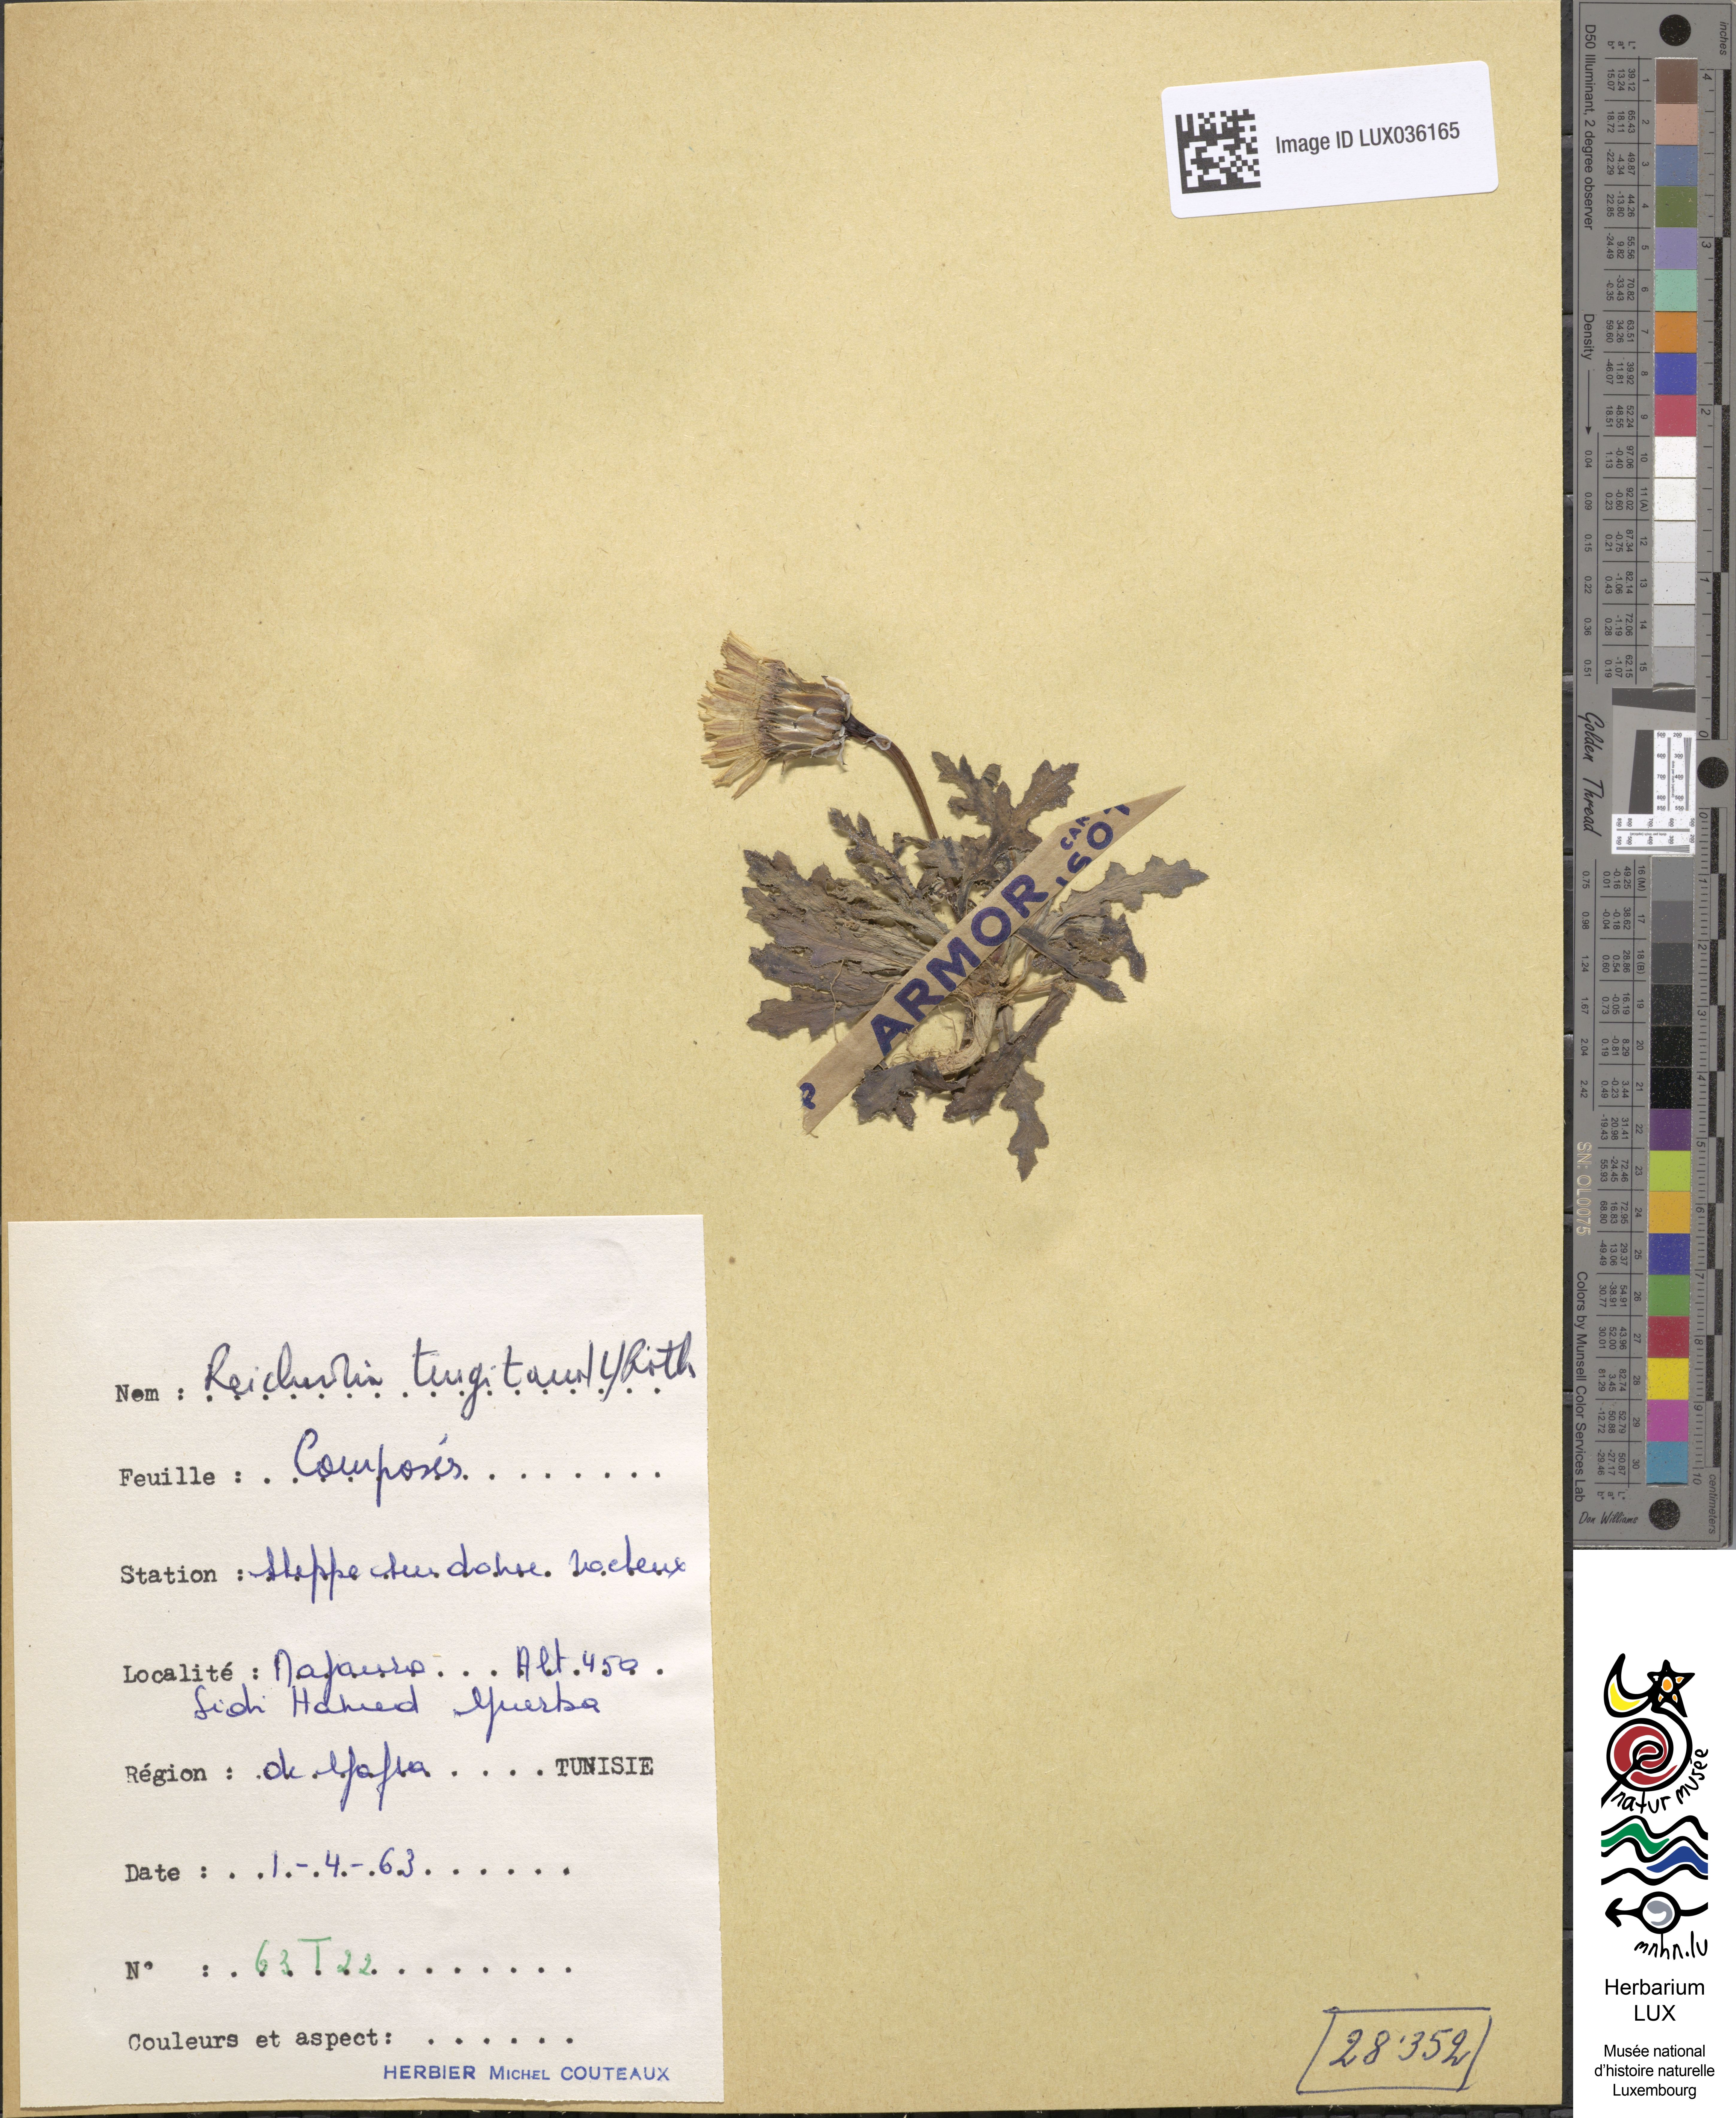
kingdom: Plantae
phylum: Tracheophyta
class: Magnoliopsida
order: Asterales
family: Asteraceae
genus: Reichardia
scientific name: Reichardia tingitana
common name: Reichardia
